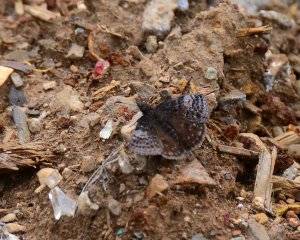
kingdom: Animalia
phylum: Arthropoda
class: Insecta
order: Lepidoptera
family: Hesperiidae
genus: Erynnis
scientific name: Erynnis icelus
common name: Dreamy Duskywing
